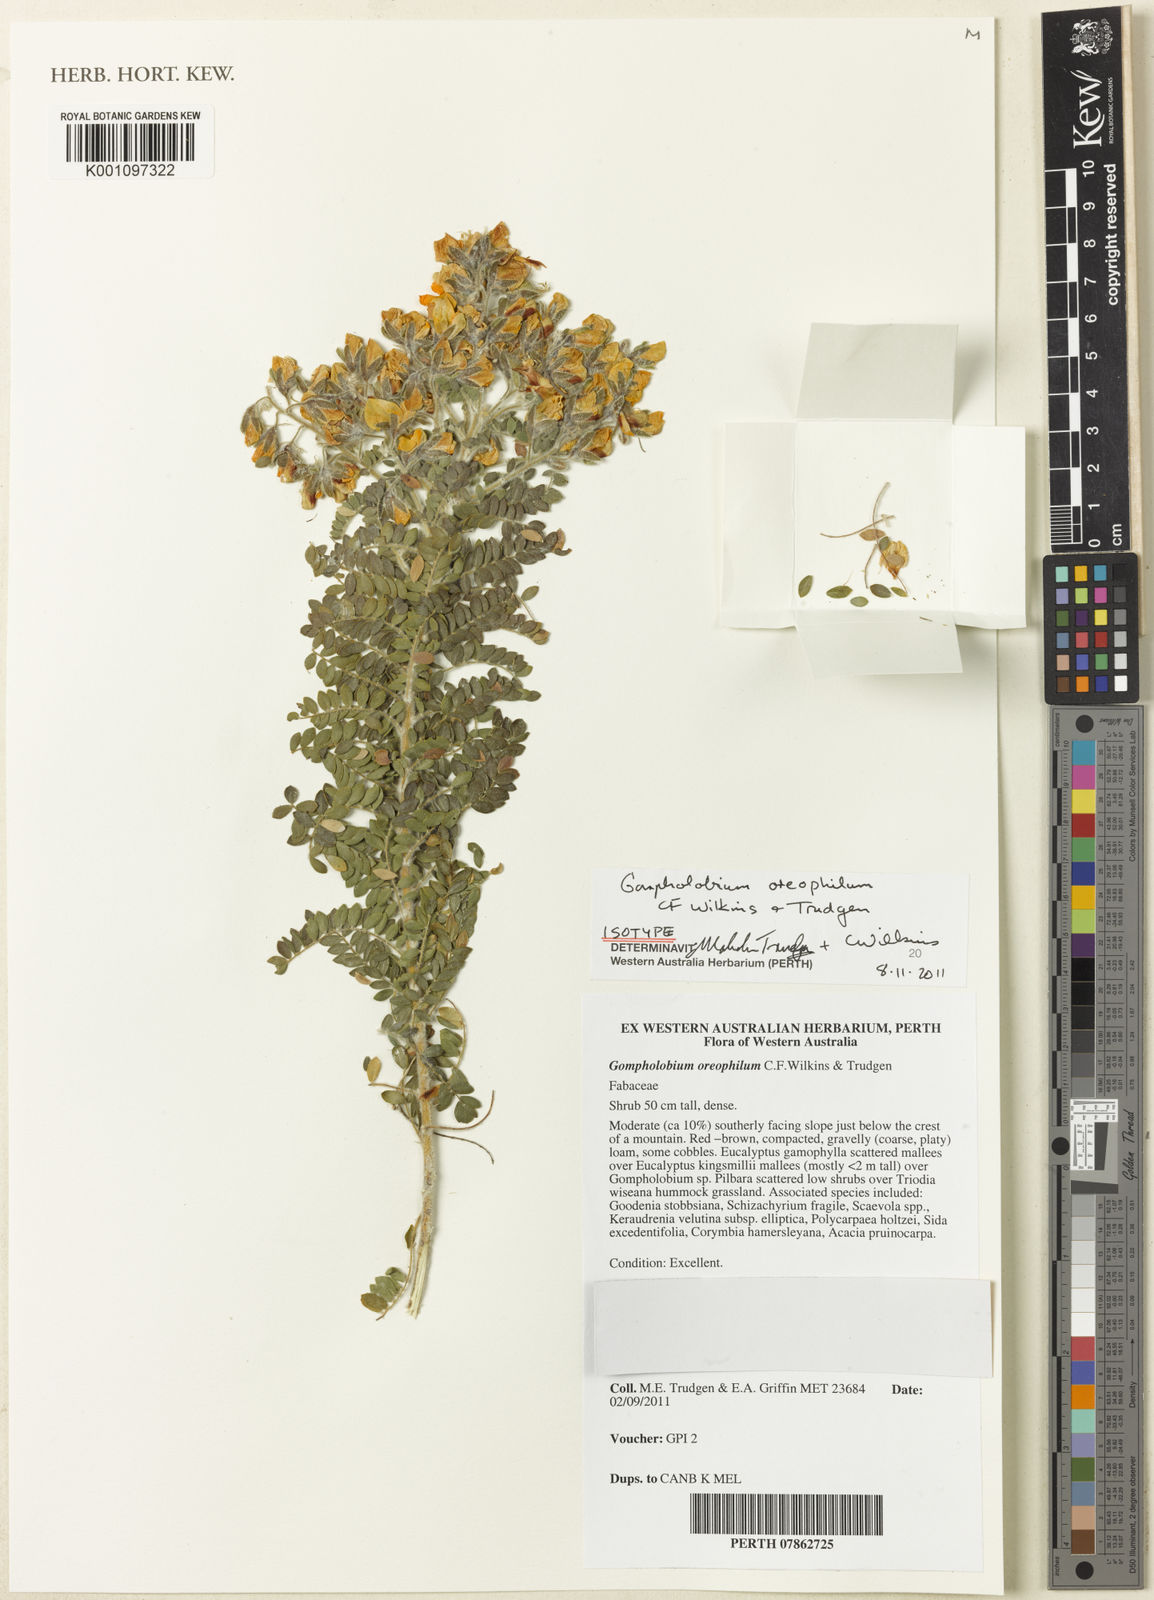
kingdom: Plantae
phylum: Tracheophyta
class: Magnoliopsida
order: Fabales
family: Fabaceae
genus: Gompholobium
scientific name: Gompholobium oreophilum
